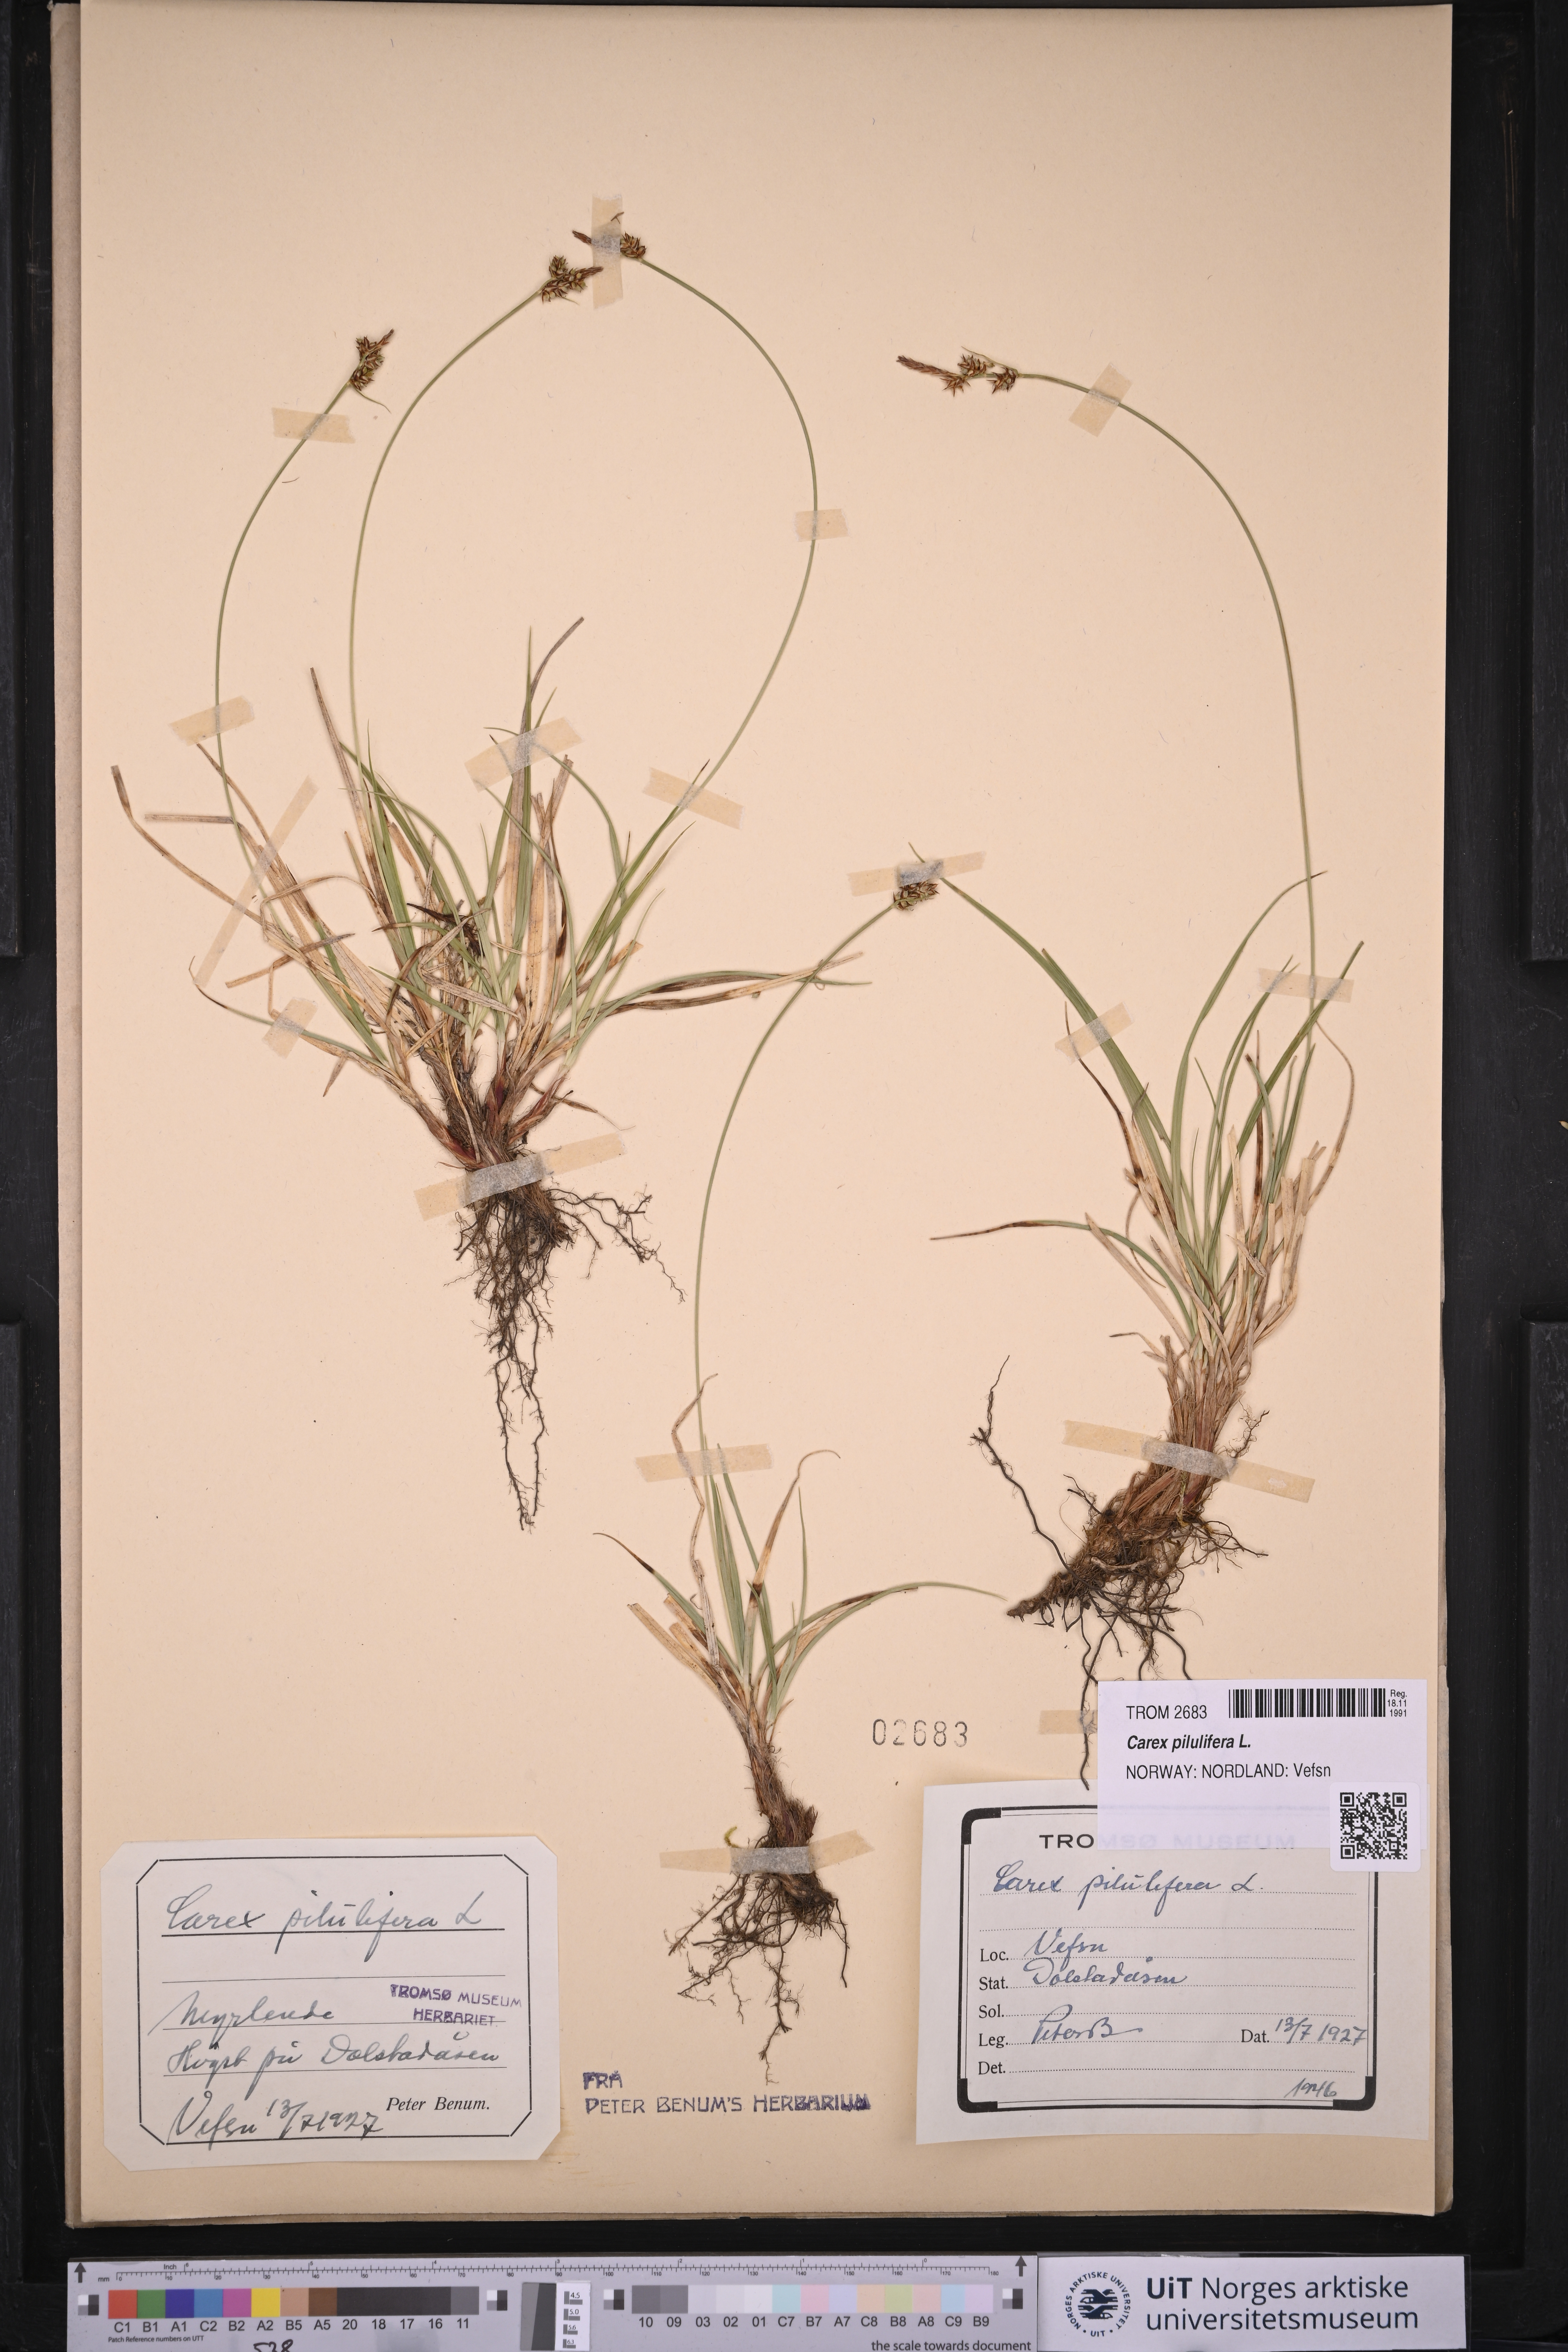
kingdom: Plantae
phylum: Tracheophyta
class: Liliopsida
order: Poales
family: Cyperaceae
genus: Carex
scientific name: Carex pilulifera
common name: Pill sedge
